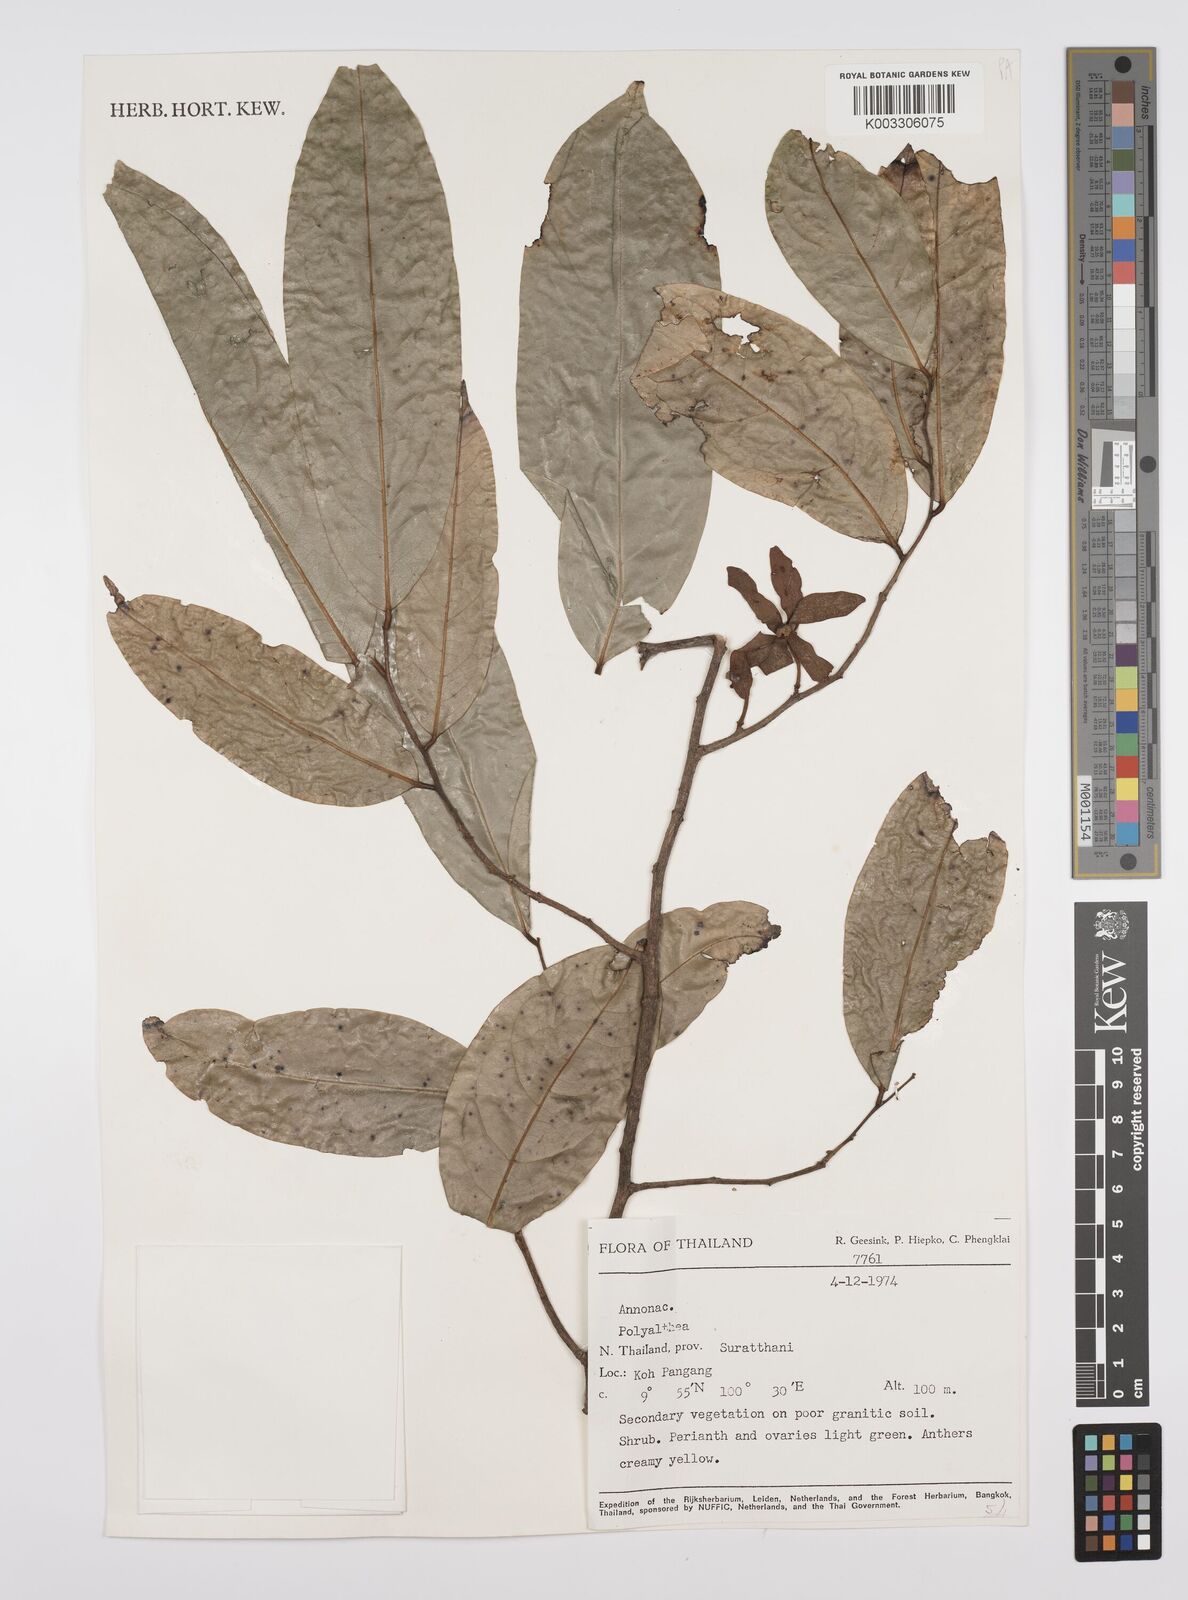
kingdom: Plantae
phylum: Tracheophyta
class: Magnoliopsida
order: Magnoliales
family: Annonaceae
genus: Huberantha
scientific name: Huberantha
